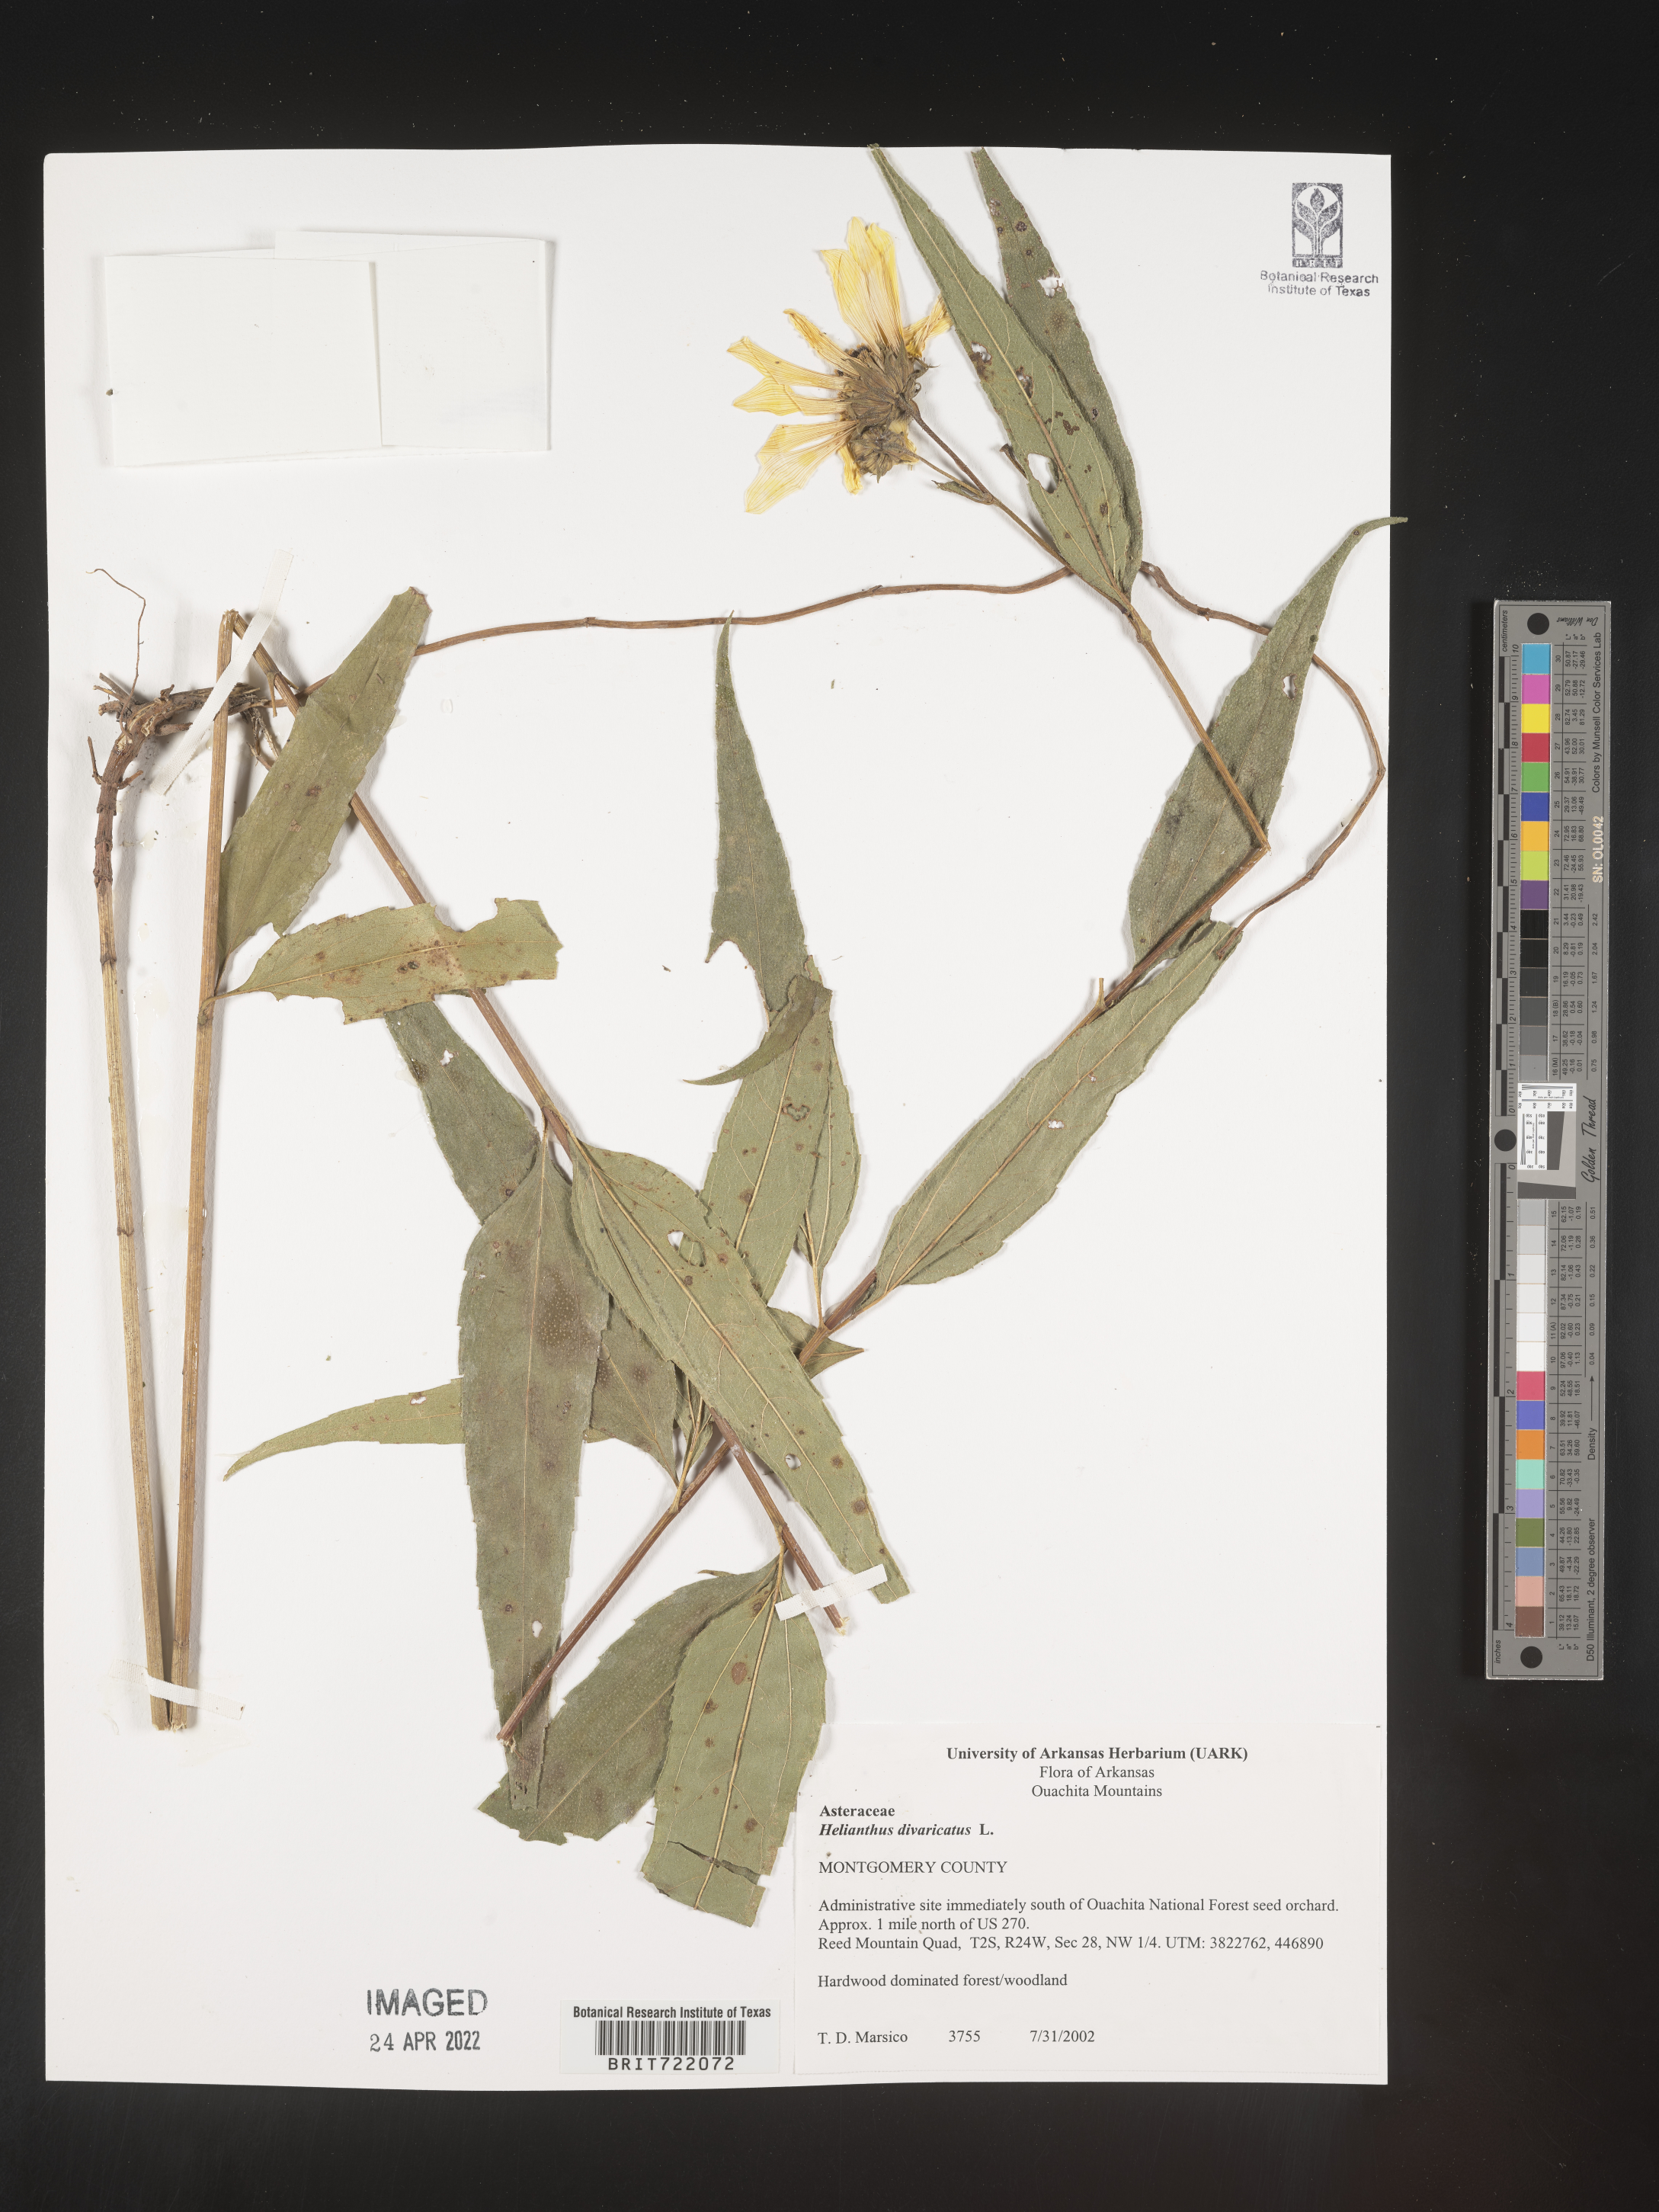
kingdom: Plantae
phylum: Tracheophyta
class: Magnoliopsida
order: Asterales
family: Asteraceae
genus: Helianthus
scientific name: Helianthus divaricatus
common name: Divergent sunflower
